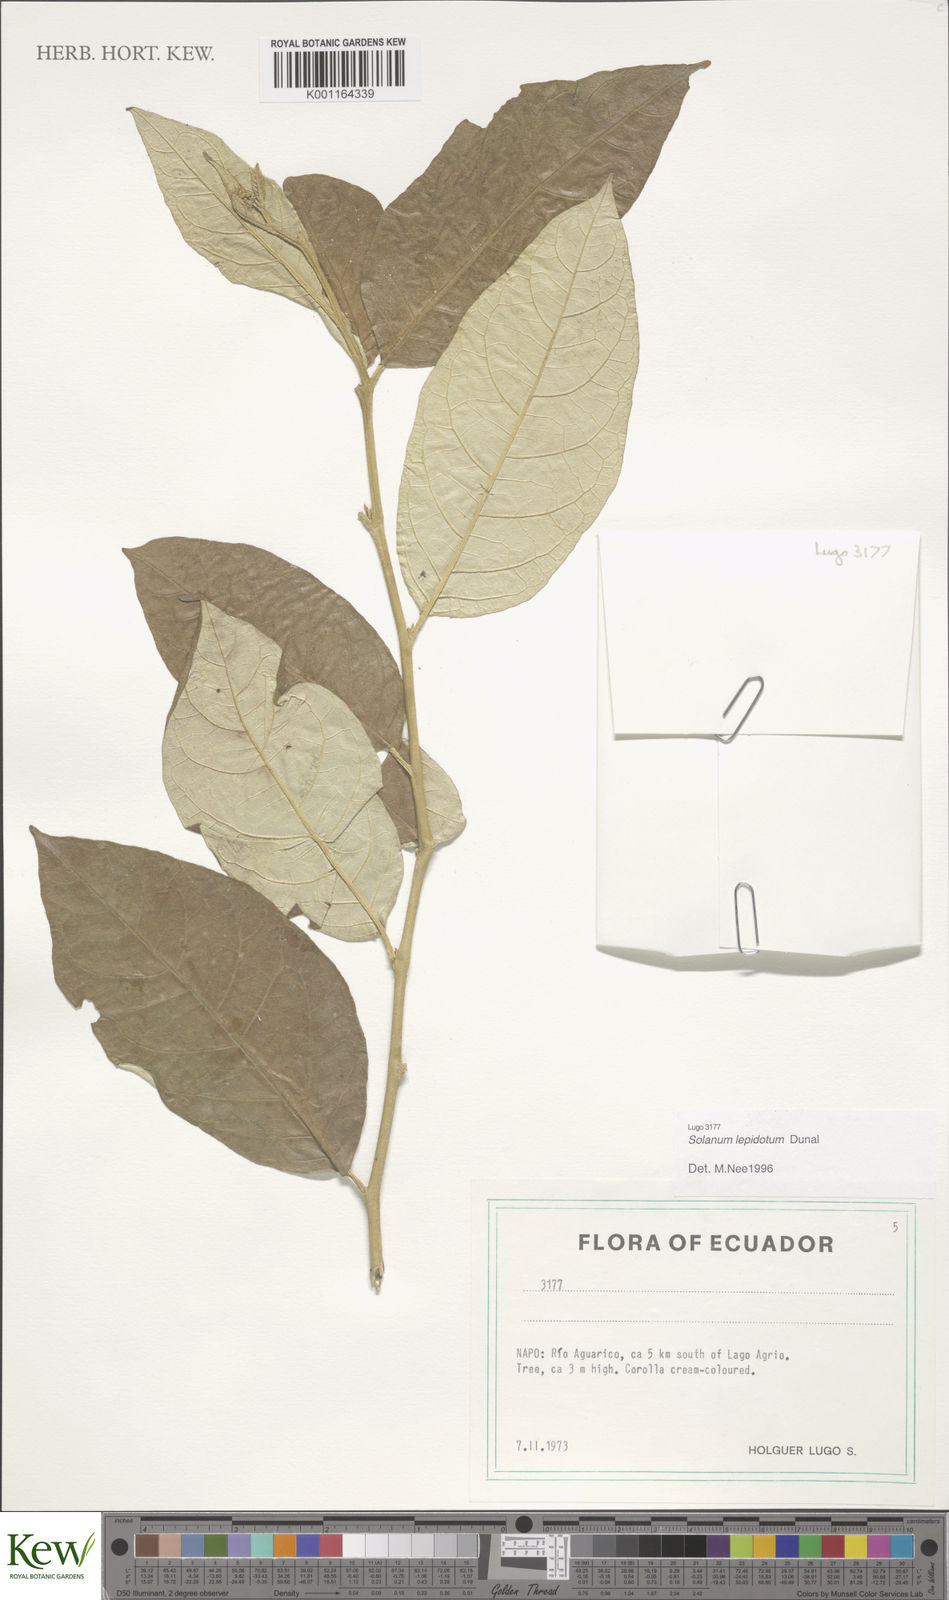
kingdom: Plantae
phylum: Tracheophyta
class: Magnoliopsida
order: Solanales
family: Solanaceae
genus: Solanum
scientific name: Solanum lepidotum
